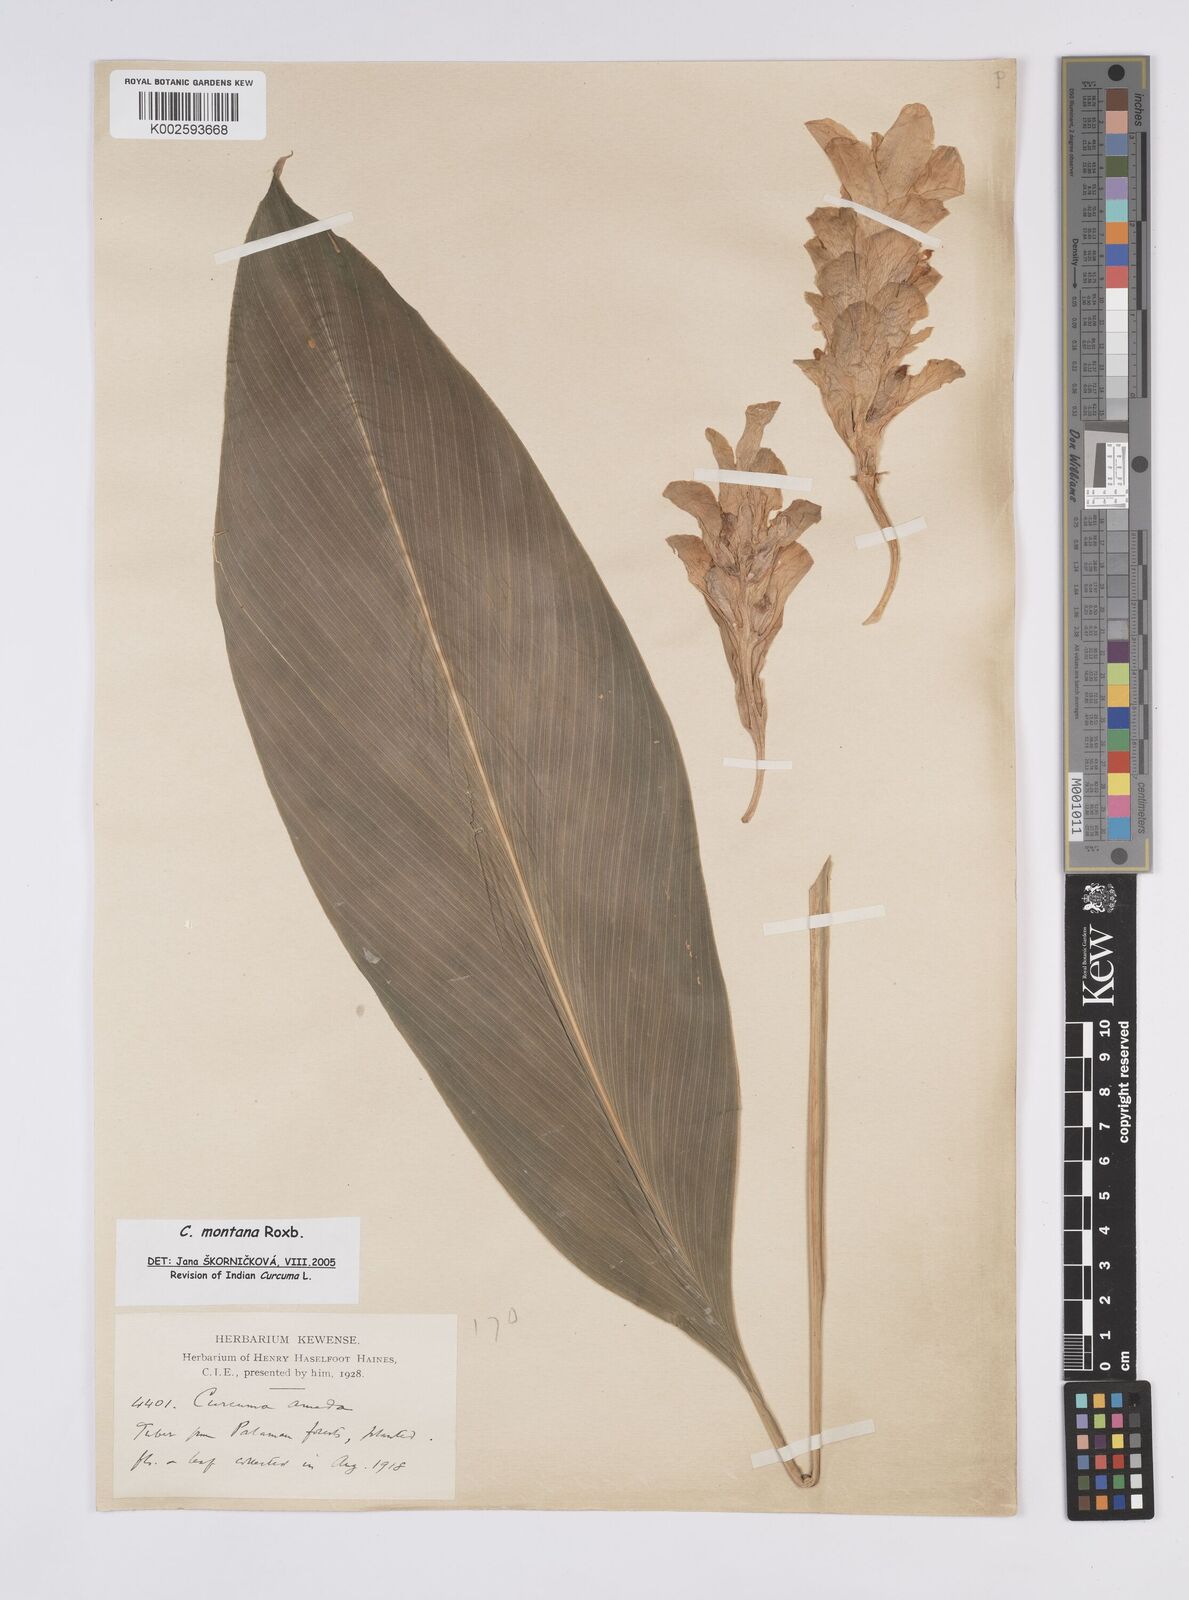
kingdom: Plantae
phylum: Tracheophyta
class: Liliopsida
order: Zingiberales
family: Zingiberaceae
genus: Curcuma
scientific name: Curcuma montana
